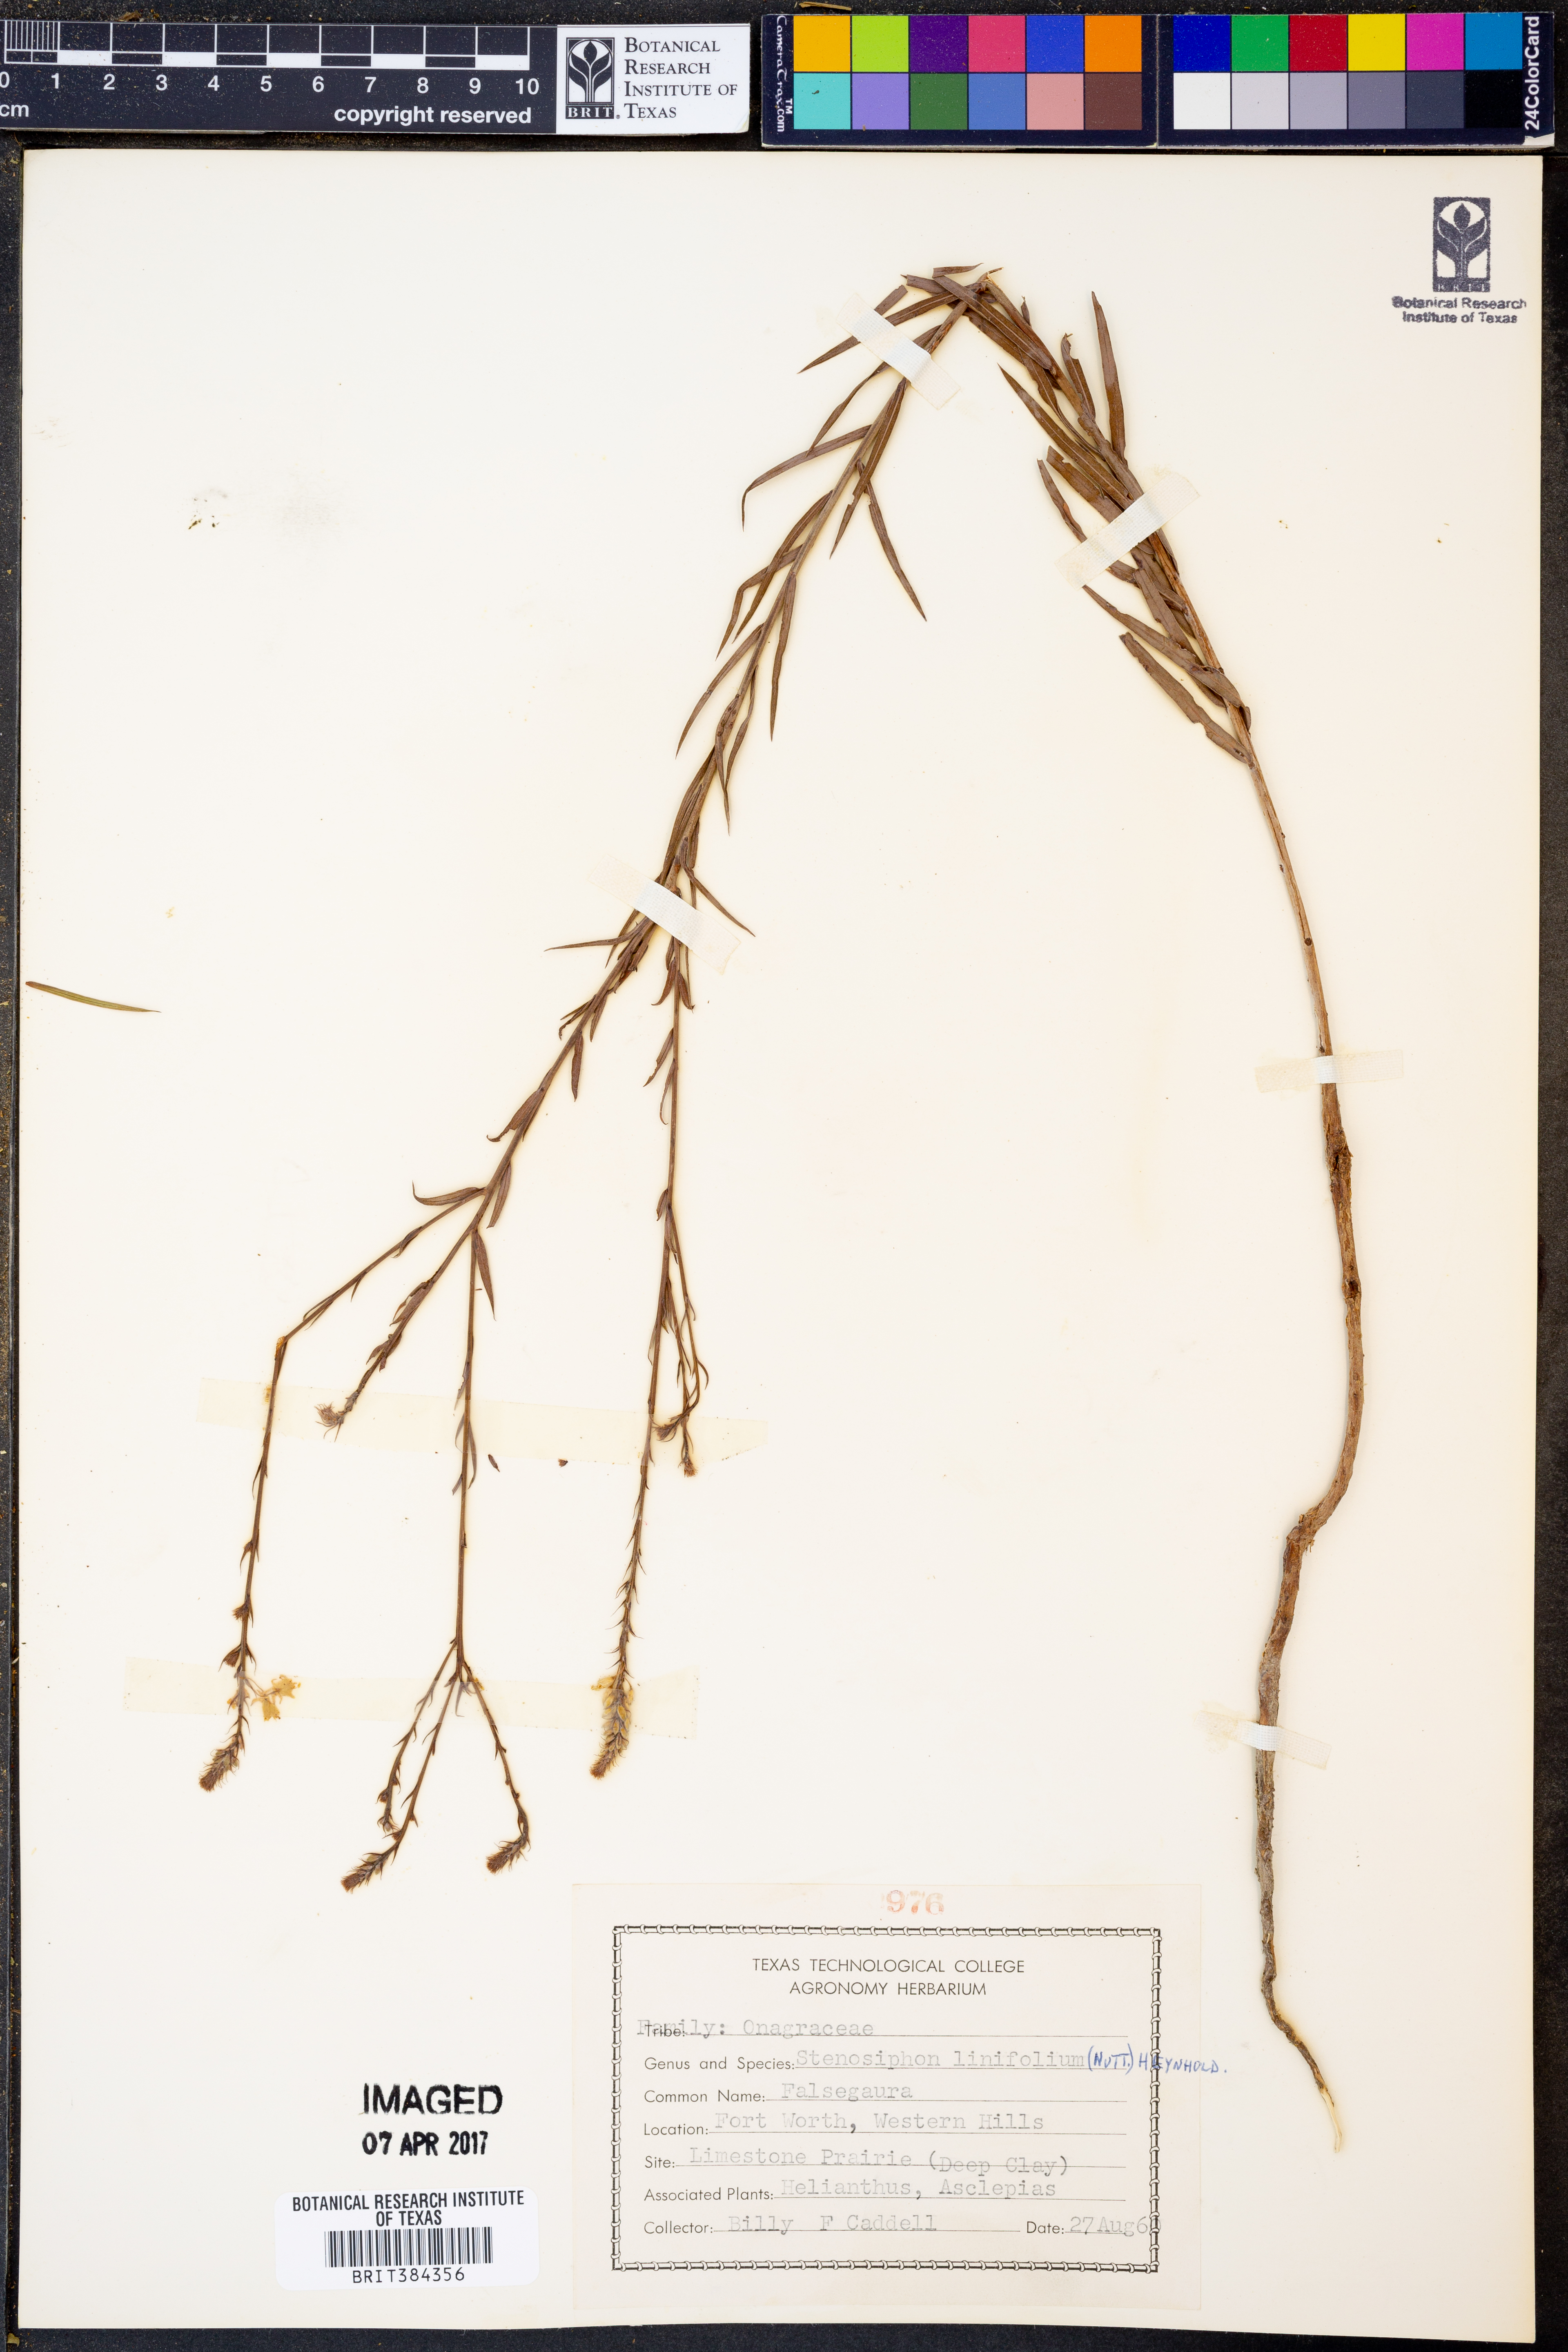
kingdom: Plantae
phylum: Tracheophyta
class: Magnoliopsida
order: Myrtales
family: Onagraceae
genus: Oenothera
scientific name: Oenothera glaucifolia
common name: False gaura
